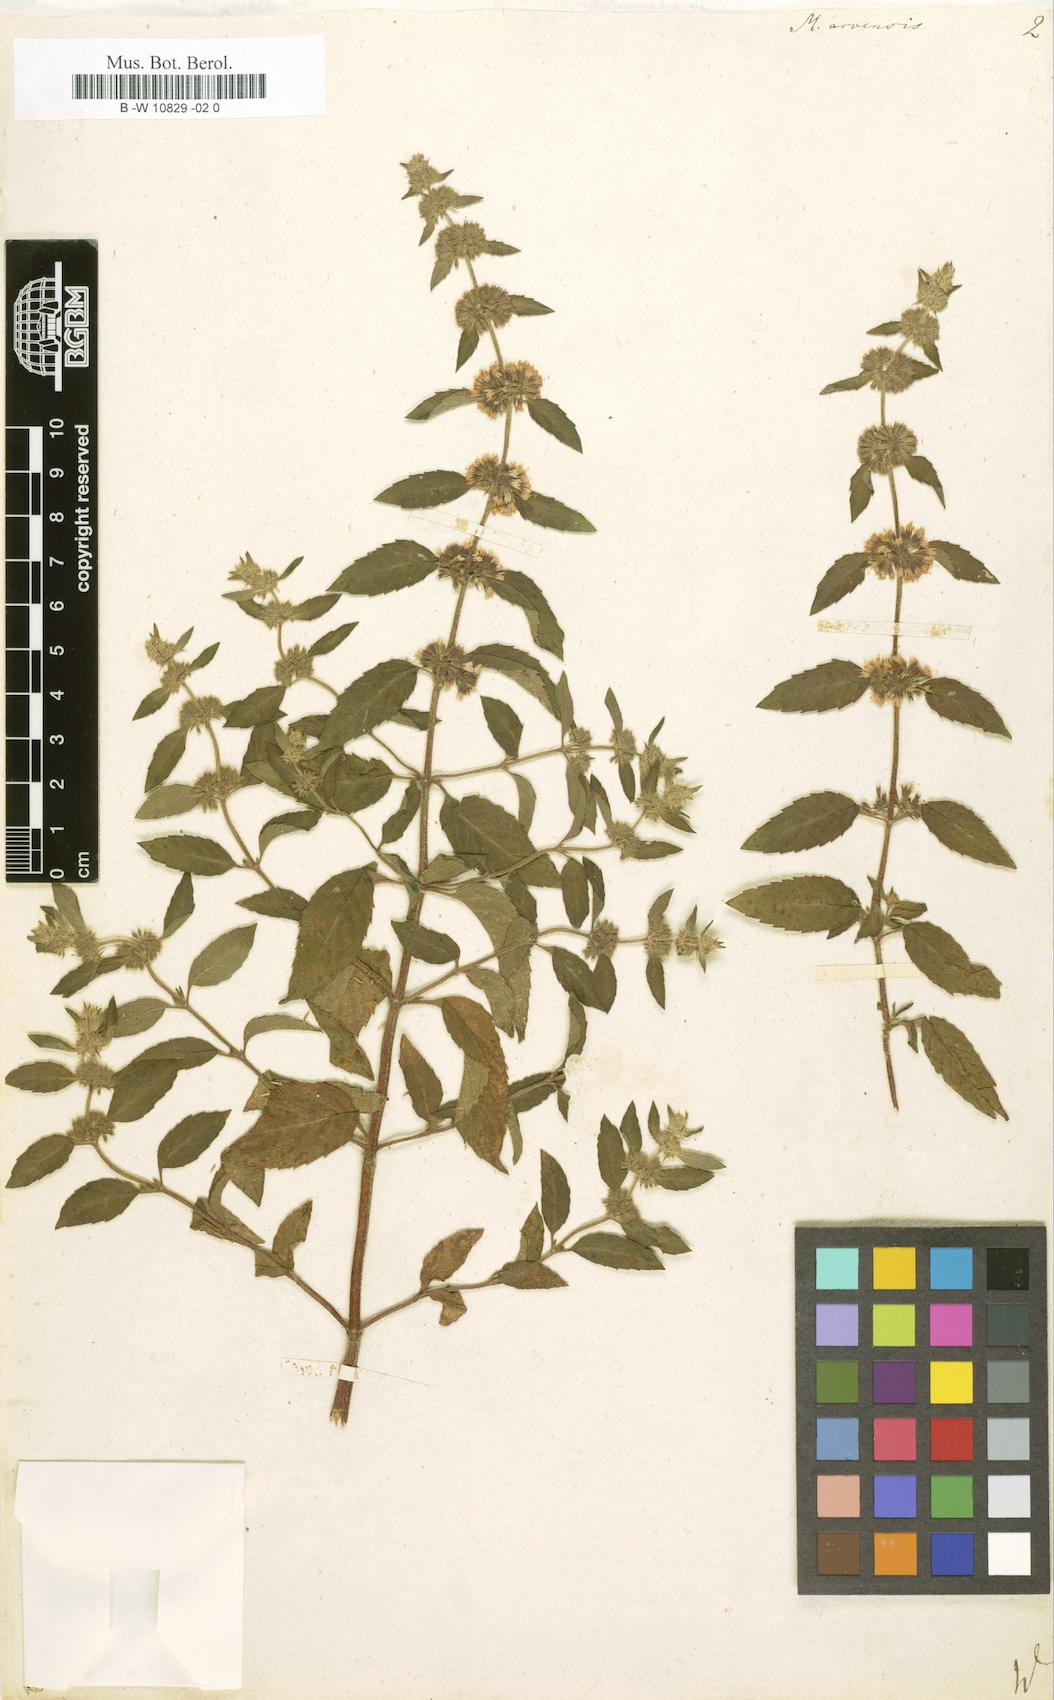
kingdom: Plantae
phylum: Tracheophyta
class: Magnoliopsida
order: Lamiales
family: Lamiaceae
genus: Mentha
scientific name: Mentha arvensis
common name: Corn mint
